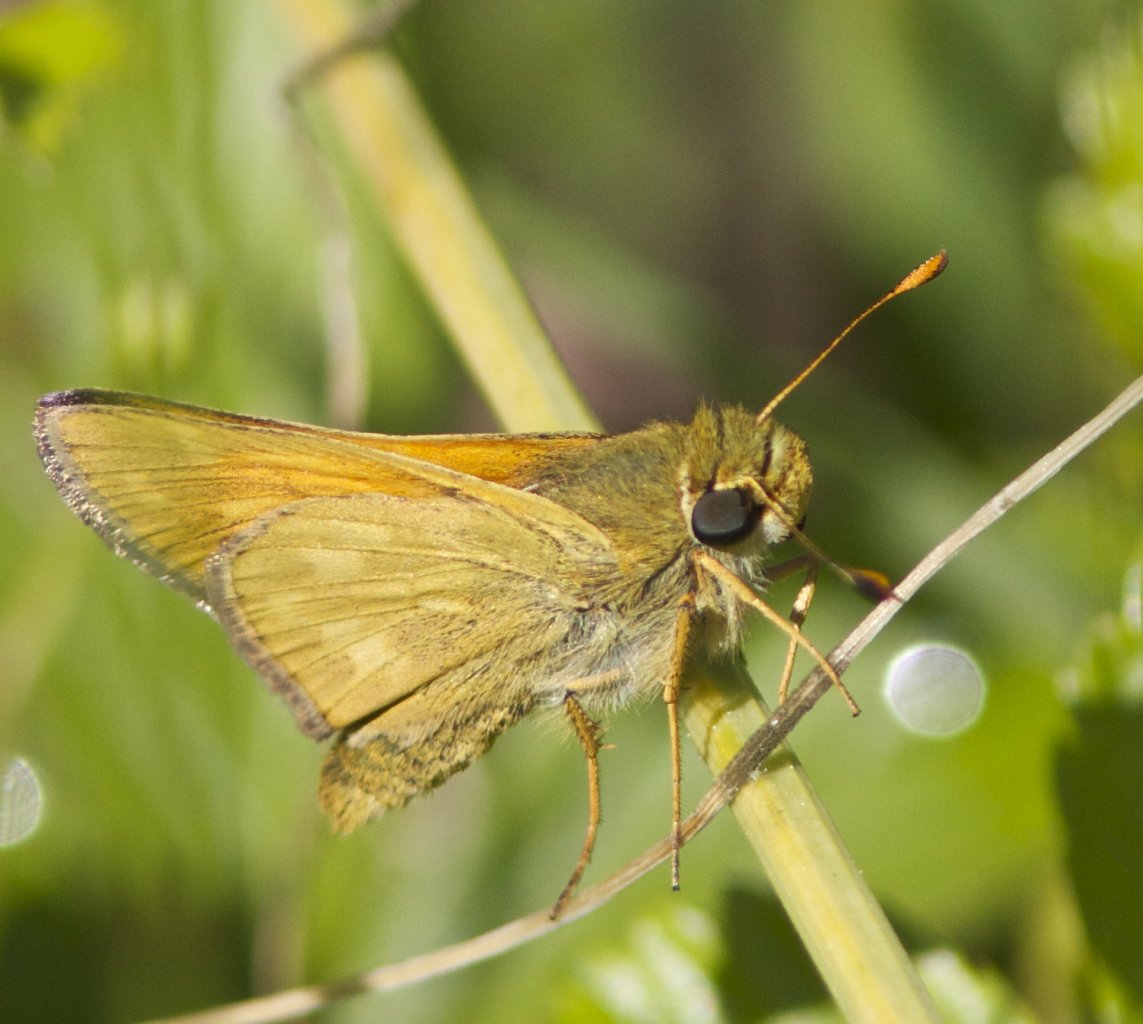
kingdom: Animalia
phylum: Arthropoda
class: Insecta
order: Lepidoptera
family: Hesperiidae
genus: Hesperia
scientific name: Hesperia sassacus
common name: Sassacus Skipper
